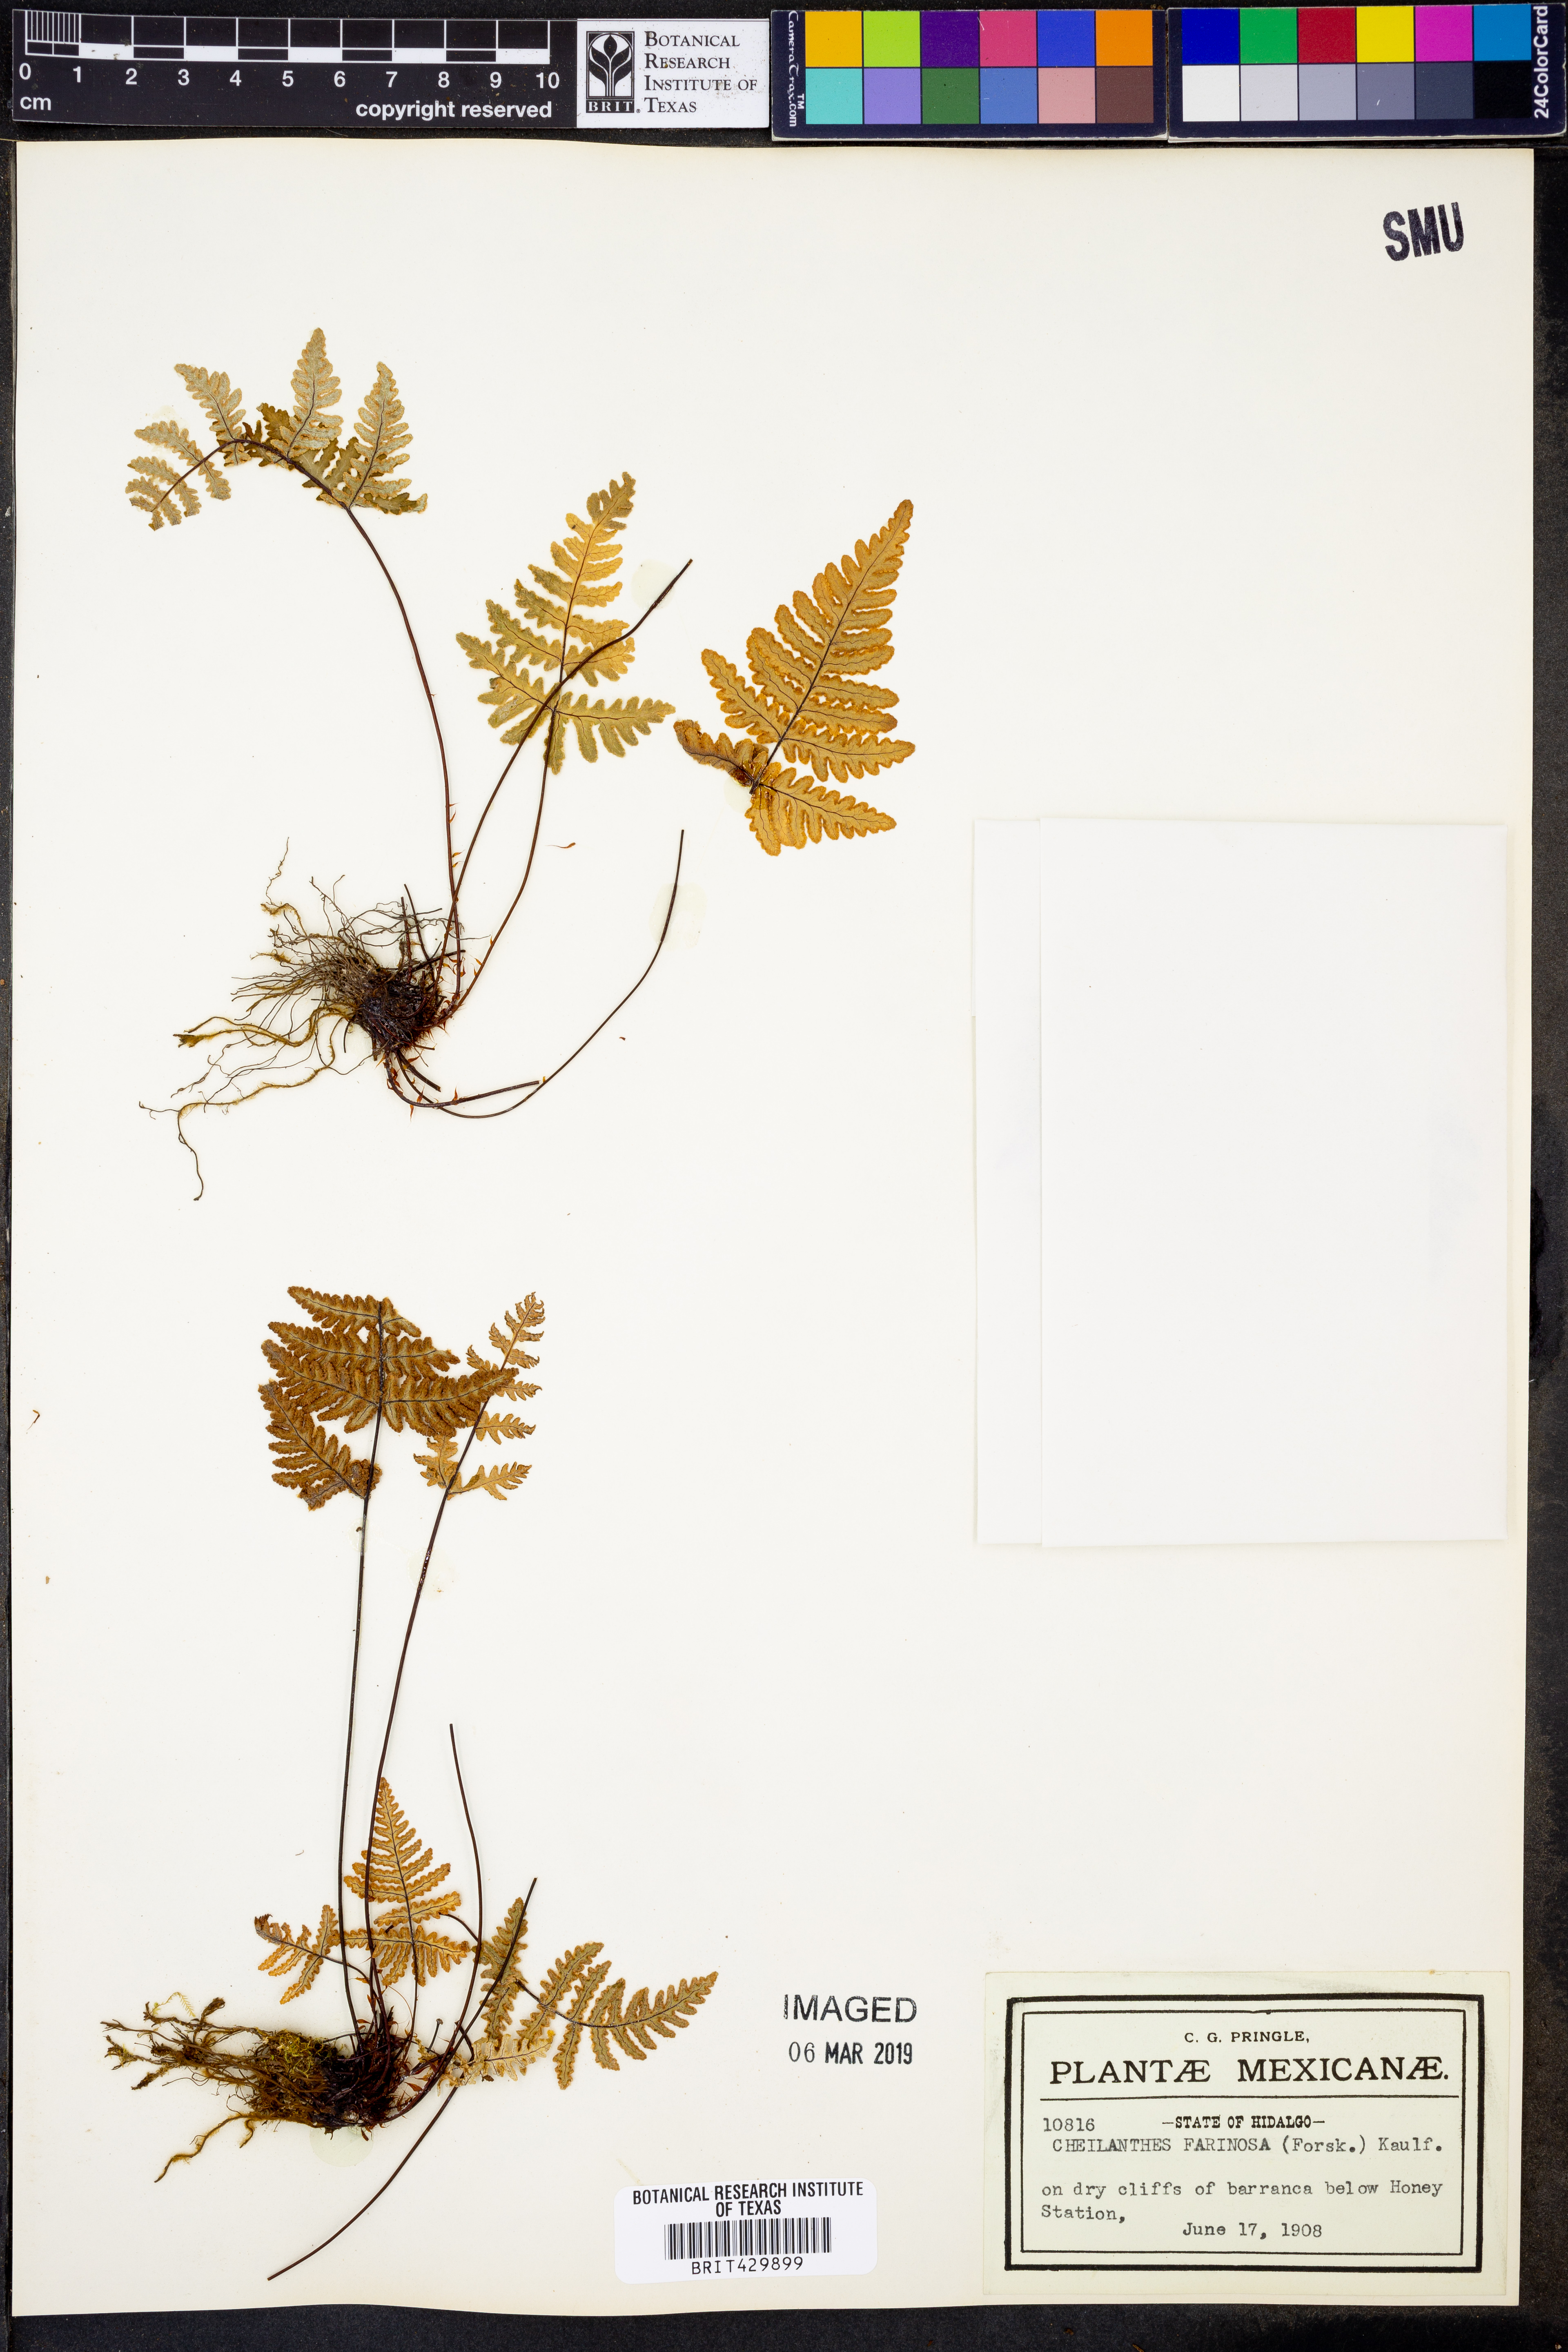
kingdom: Plantae
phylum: Tracheophyta
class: Polypodiopsida
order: Polypodiales
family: Pteridaceae
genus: Aleuritopteris
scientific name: Aleuritopteris farinosa
